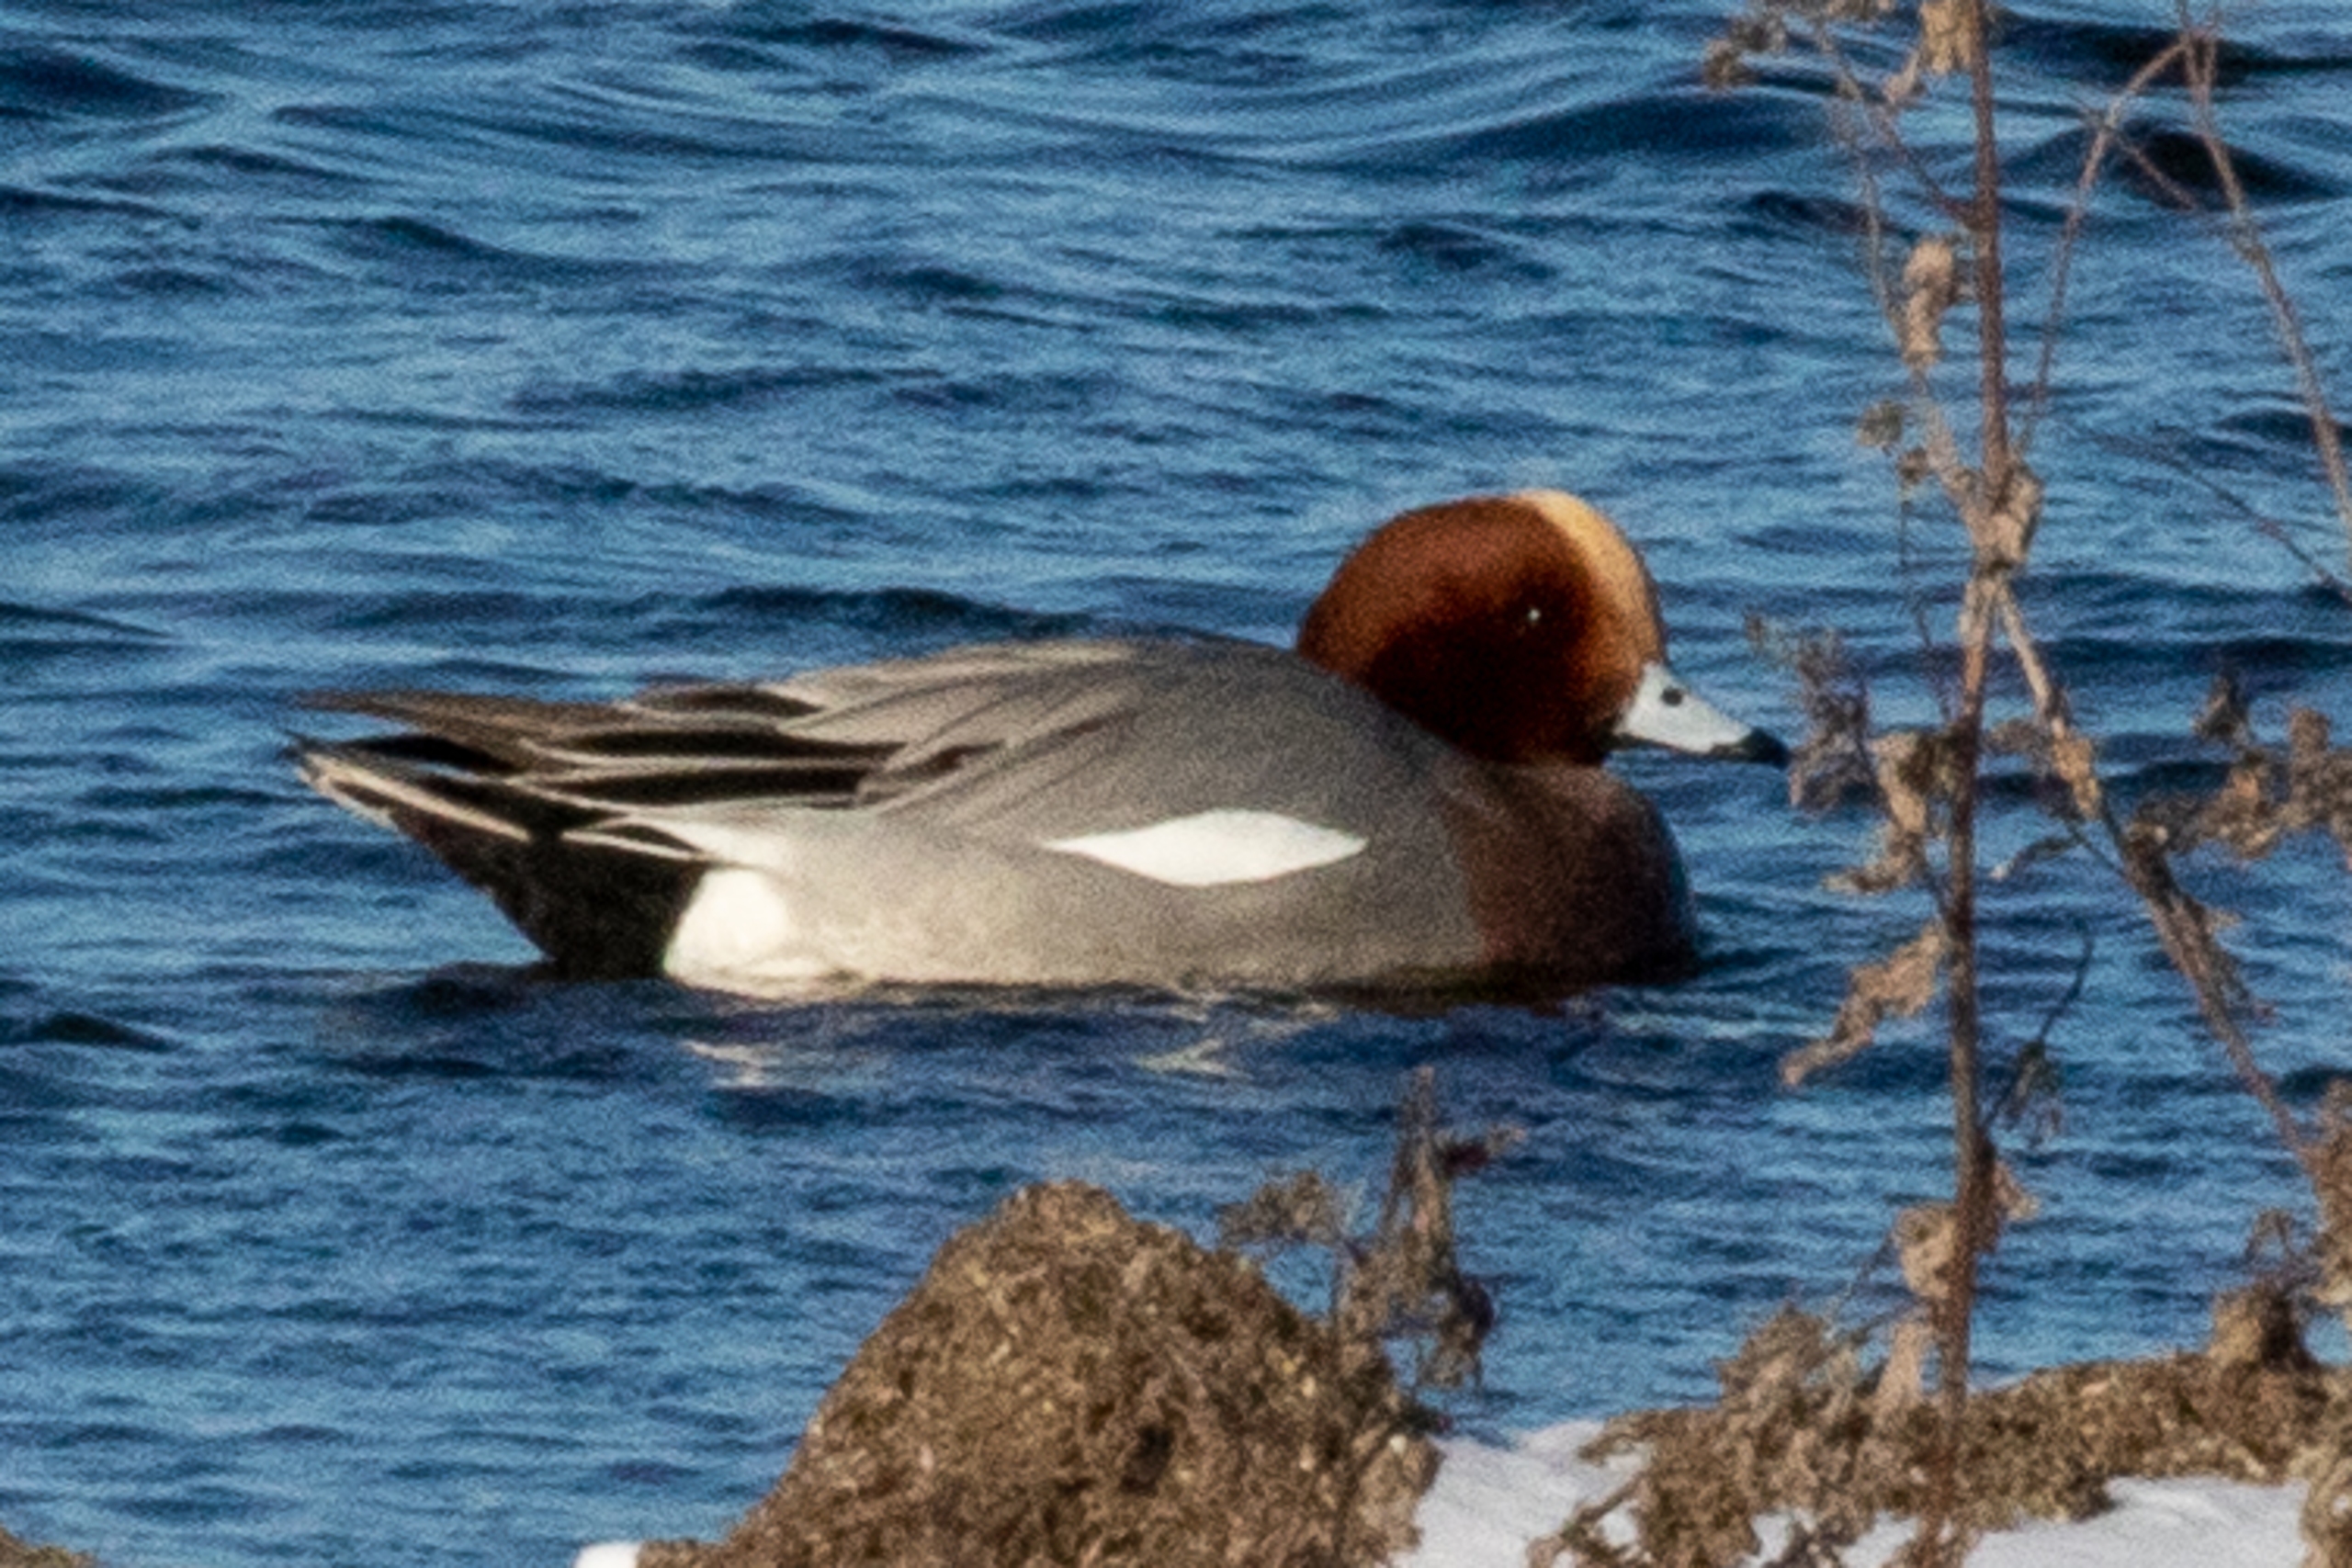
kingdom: Animalia
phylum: Chordata
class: Aves
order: Anseriformes
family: Anatidae
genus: Mareca
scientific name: Mareca penelope
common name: Pibeand
